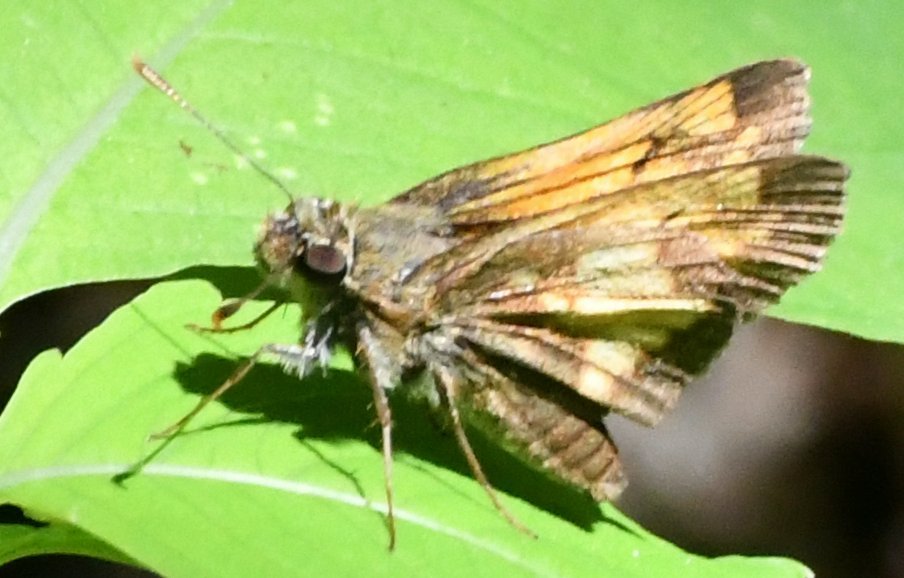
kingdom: Animalia
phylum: Arthropoda
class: Insecta
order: Lepidoptera
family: Hesperiidae
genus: Polites
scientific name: Polites coras
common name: Peck's Skipper
